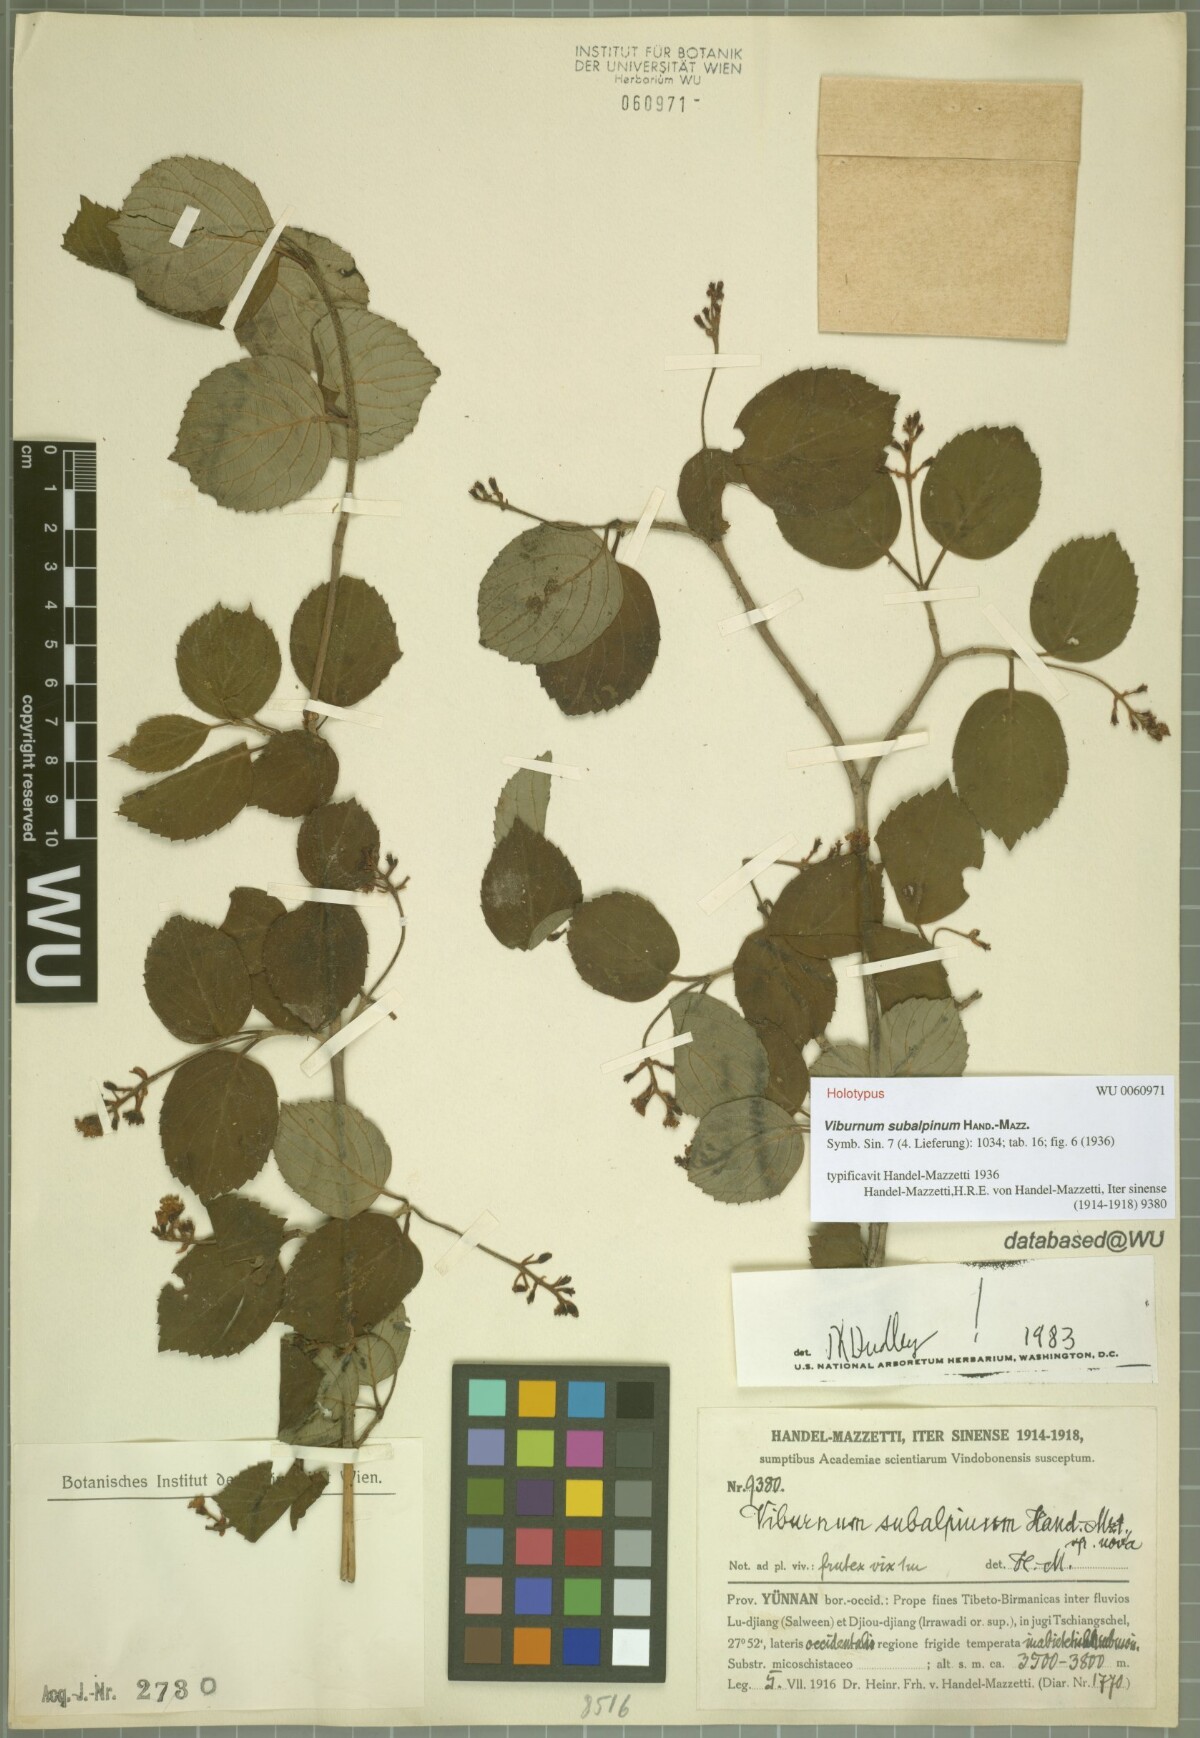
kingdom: Plantae
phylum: Tracheophyta
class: Magnoliopsida
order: Dipsacales
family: Viburnaceae
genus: Viburnum
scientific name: Viburnum subalpinum
